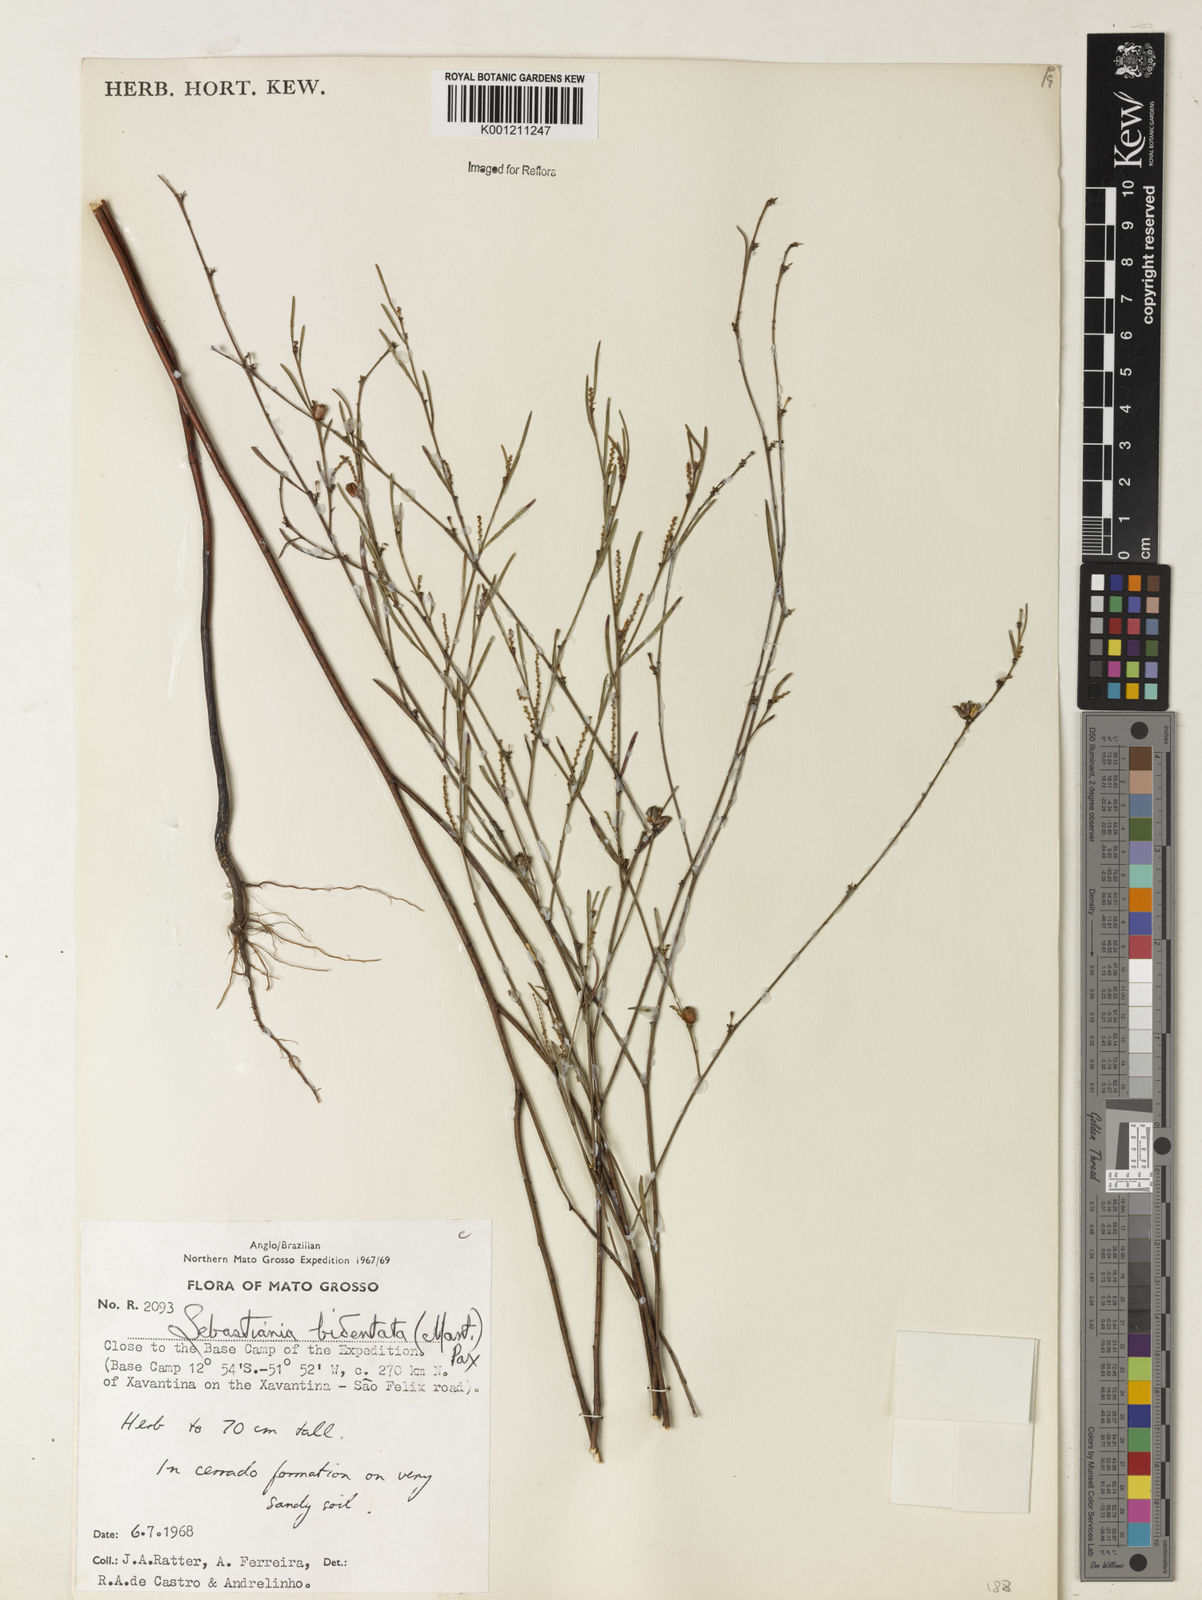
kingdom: Plantae
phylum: Tracheophyta
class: Magnoliopsida
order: Malpighiales
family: Euphorbiaceae
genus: Microstachys
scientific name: Microstachys bidentata
